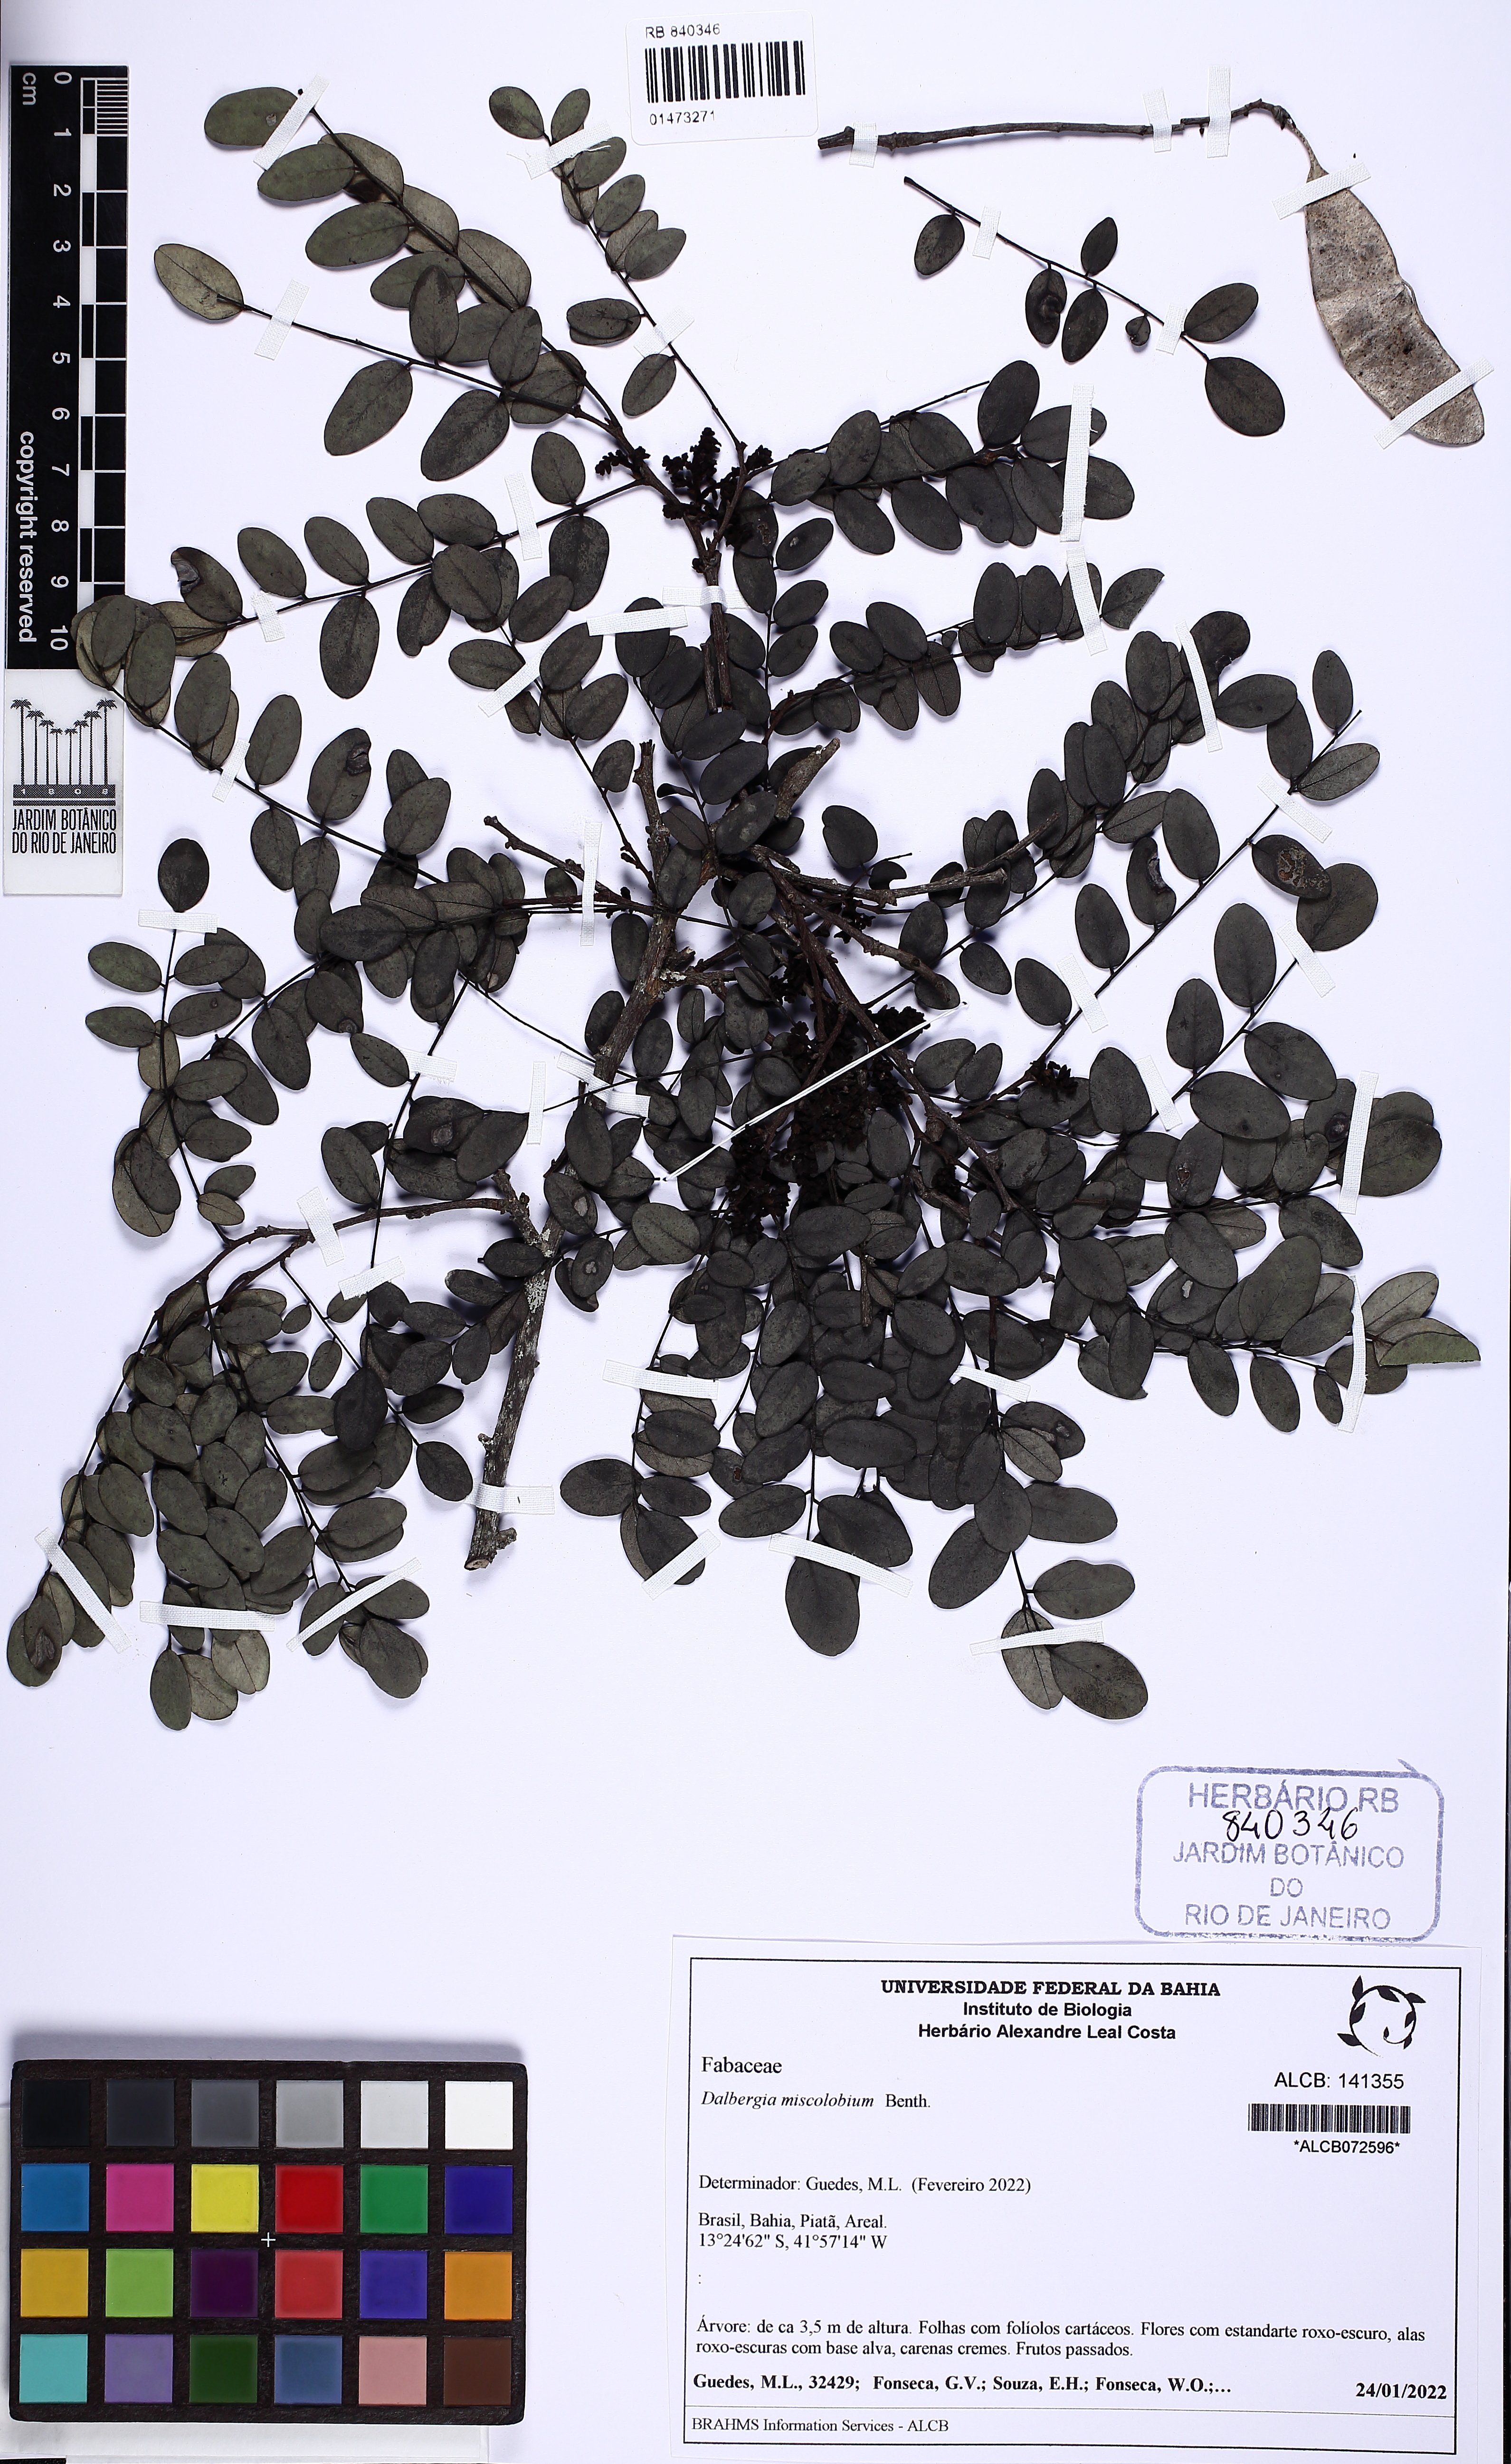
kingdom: Plantae
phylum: Tracheophyta
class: Magnoliopsida
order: Fabales
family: Fabaceae
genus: Dalbergia
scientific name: Dalbergia miscolobium
